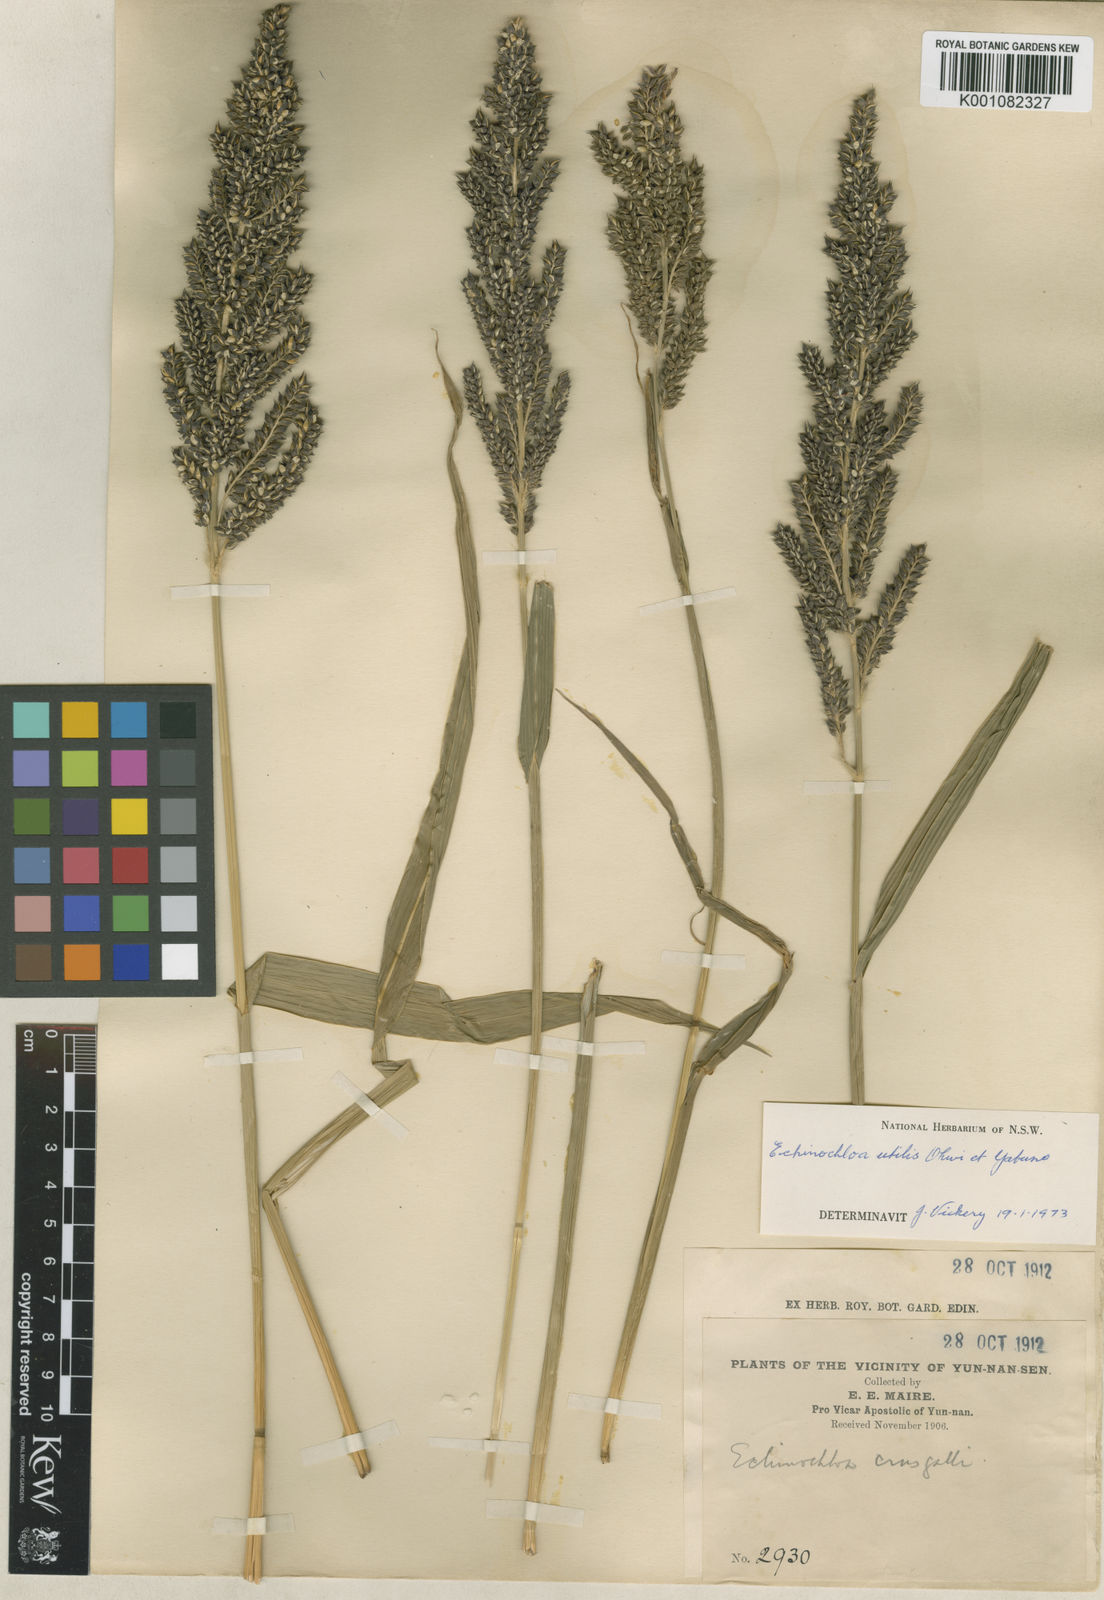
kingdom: Plantae
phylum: Tracheophyta
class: Liliopsida
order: Poales
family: Poaceae
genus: Echinochloa
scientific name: Echinochloa crus-galli
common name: Cockspur
